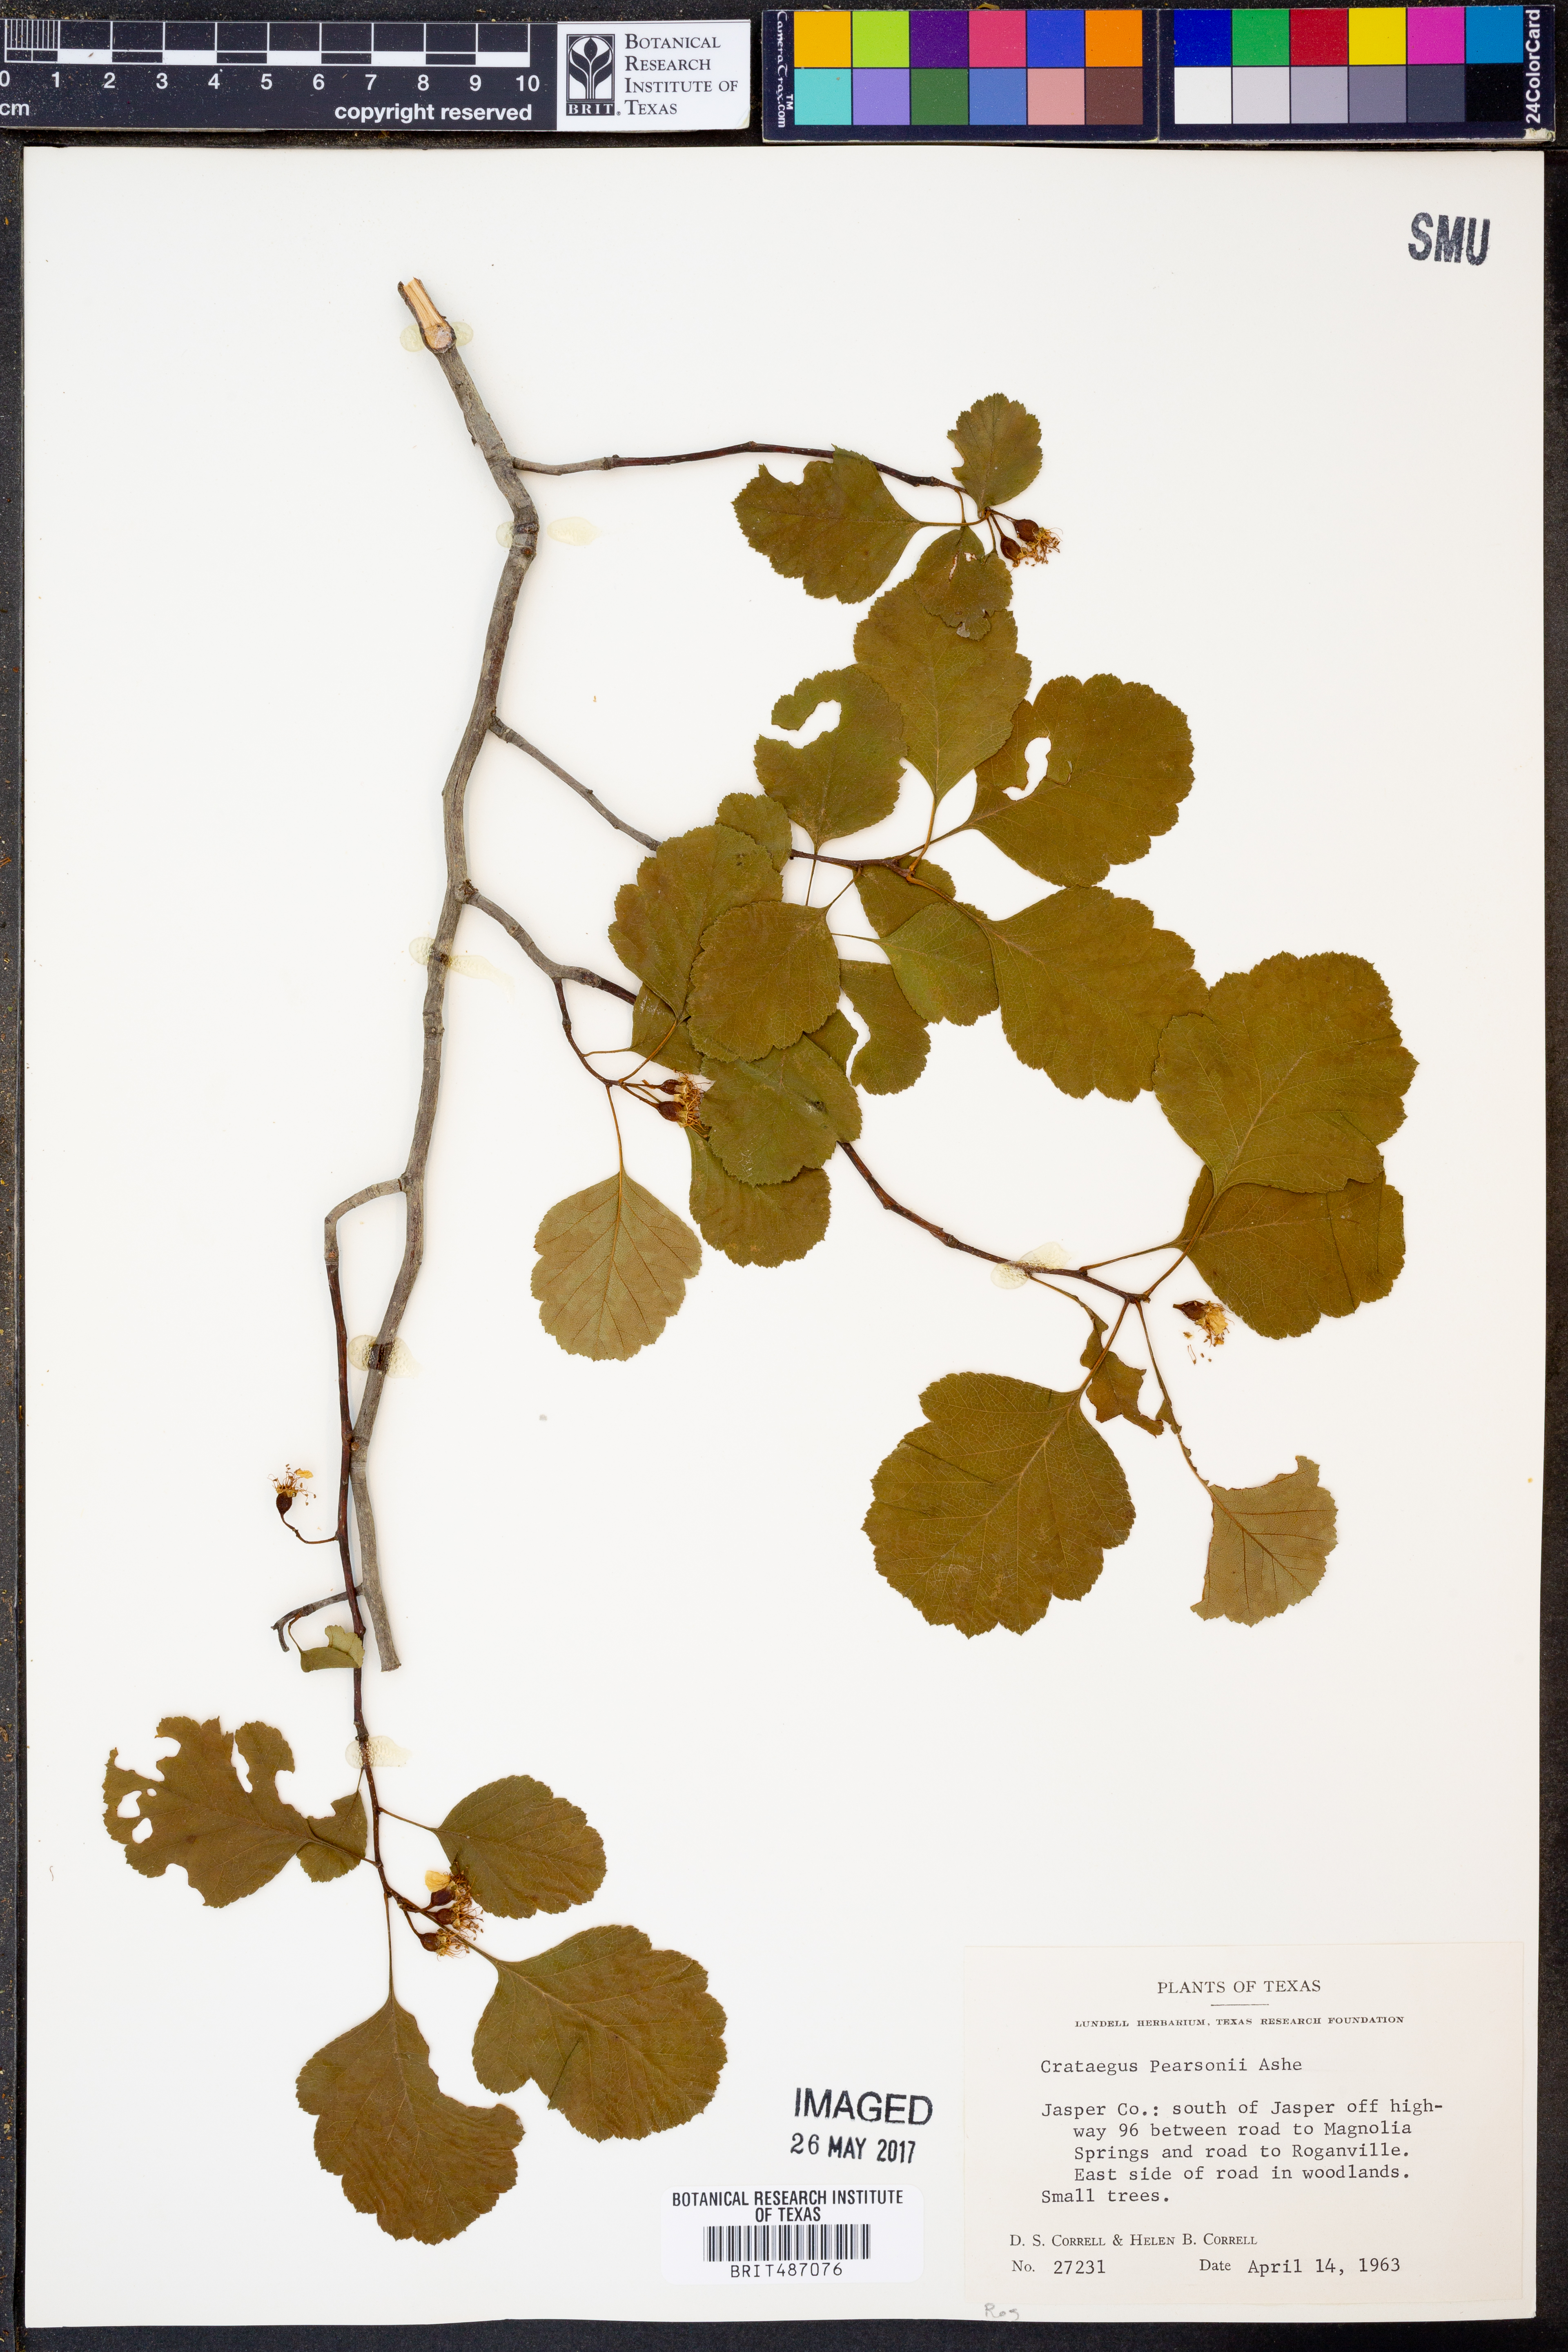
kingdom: Plantae
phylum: Tracheophyta
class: Magnoliopsida
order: Rosales
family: Rosaceae
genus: Crataegus
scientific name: Crataegus pearsonii
